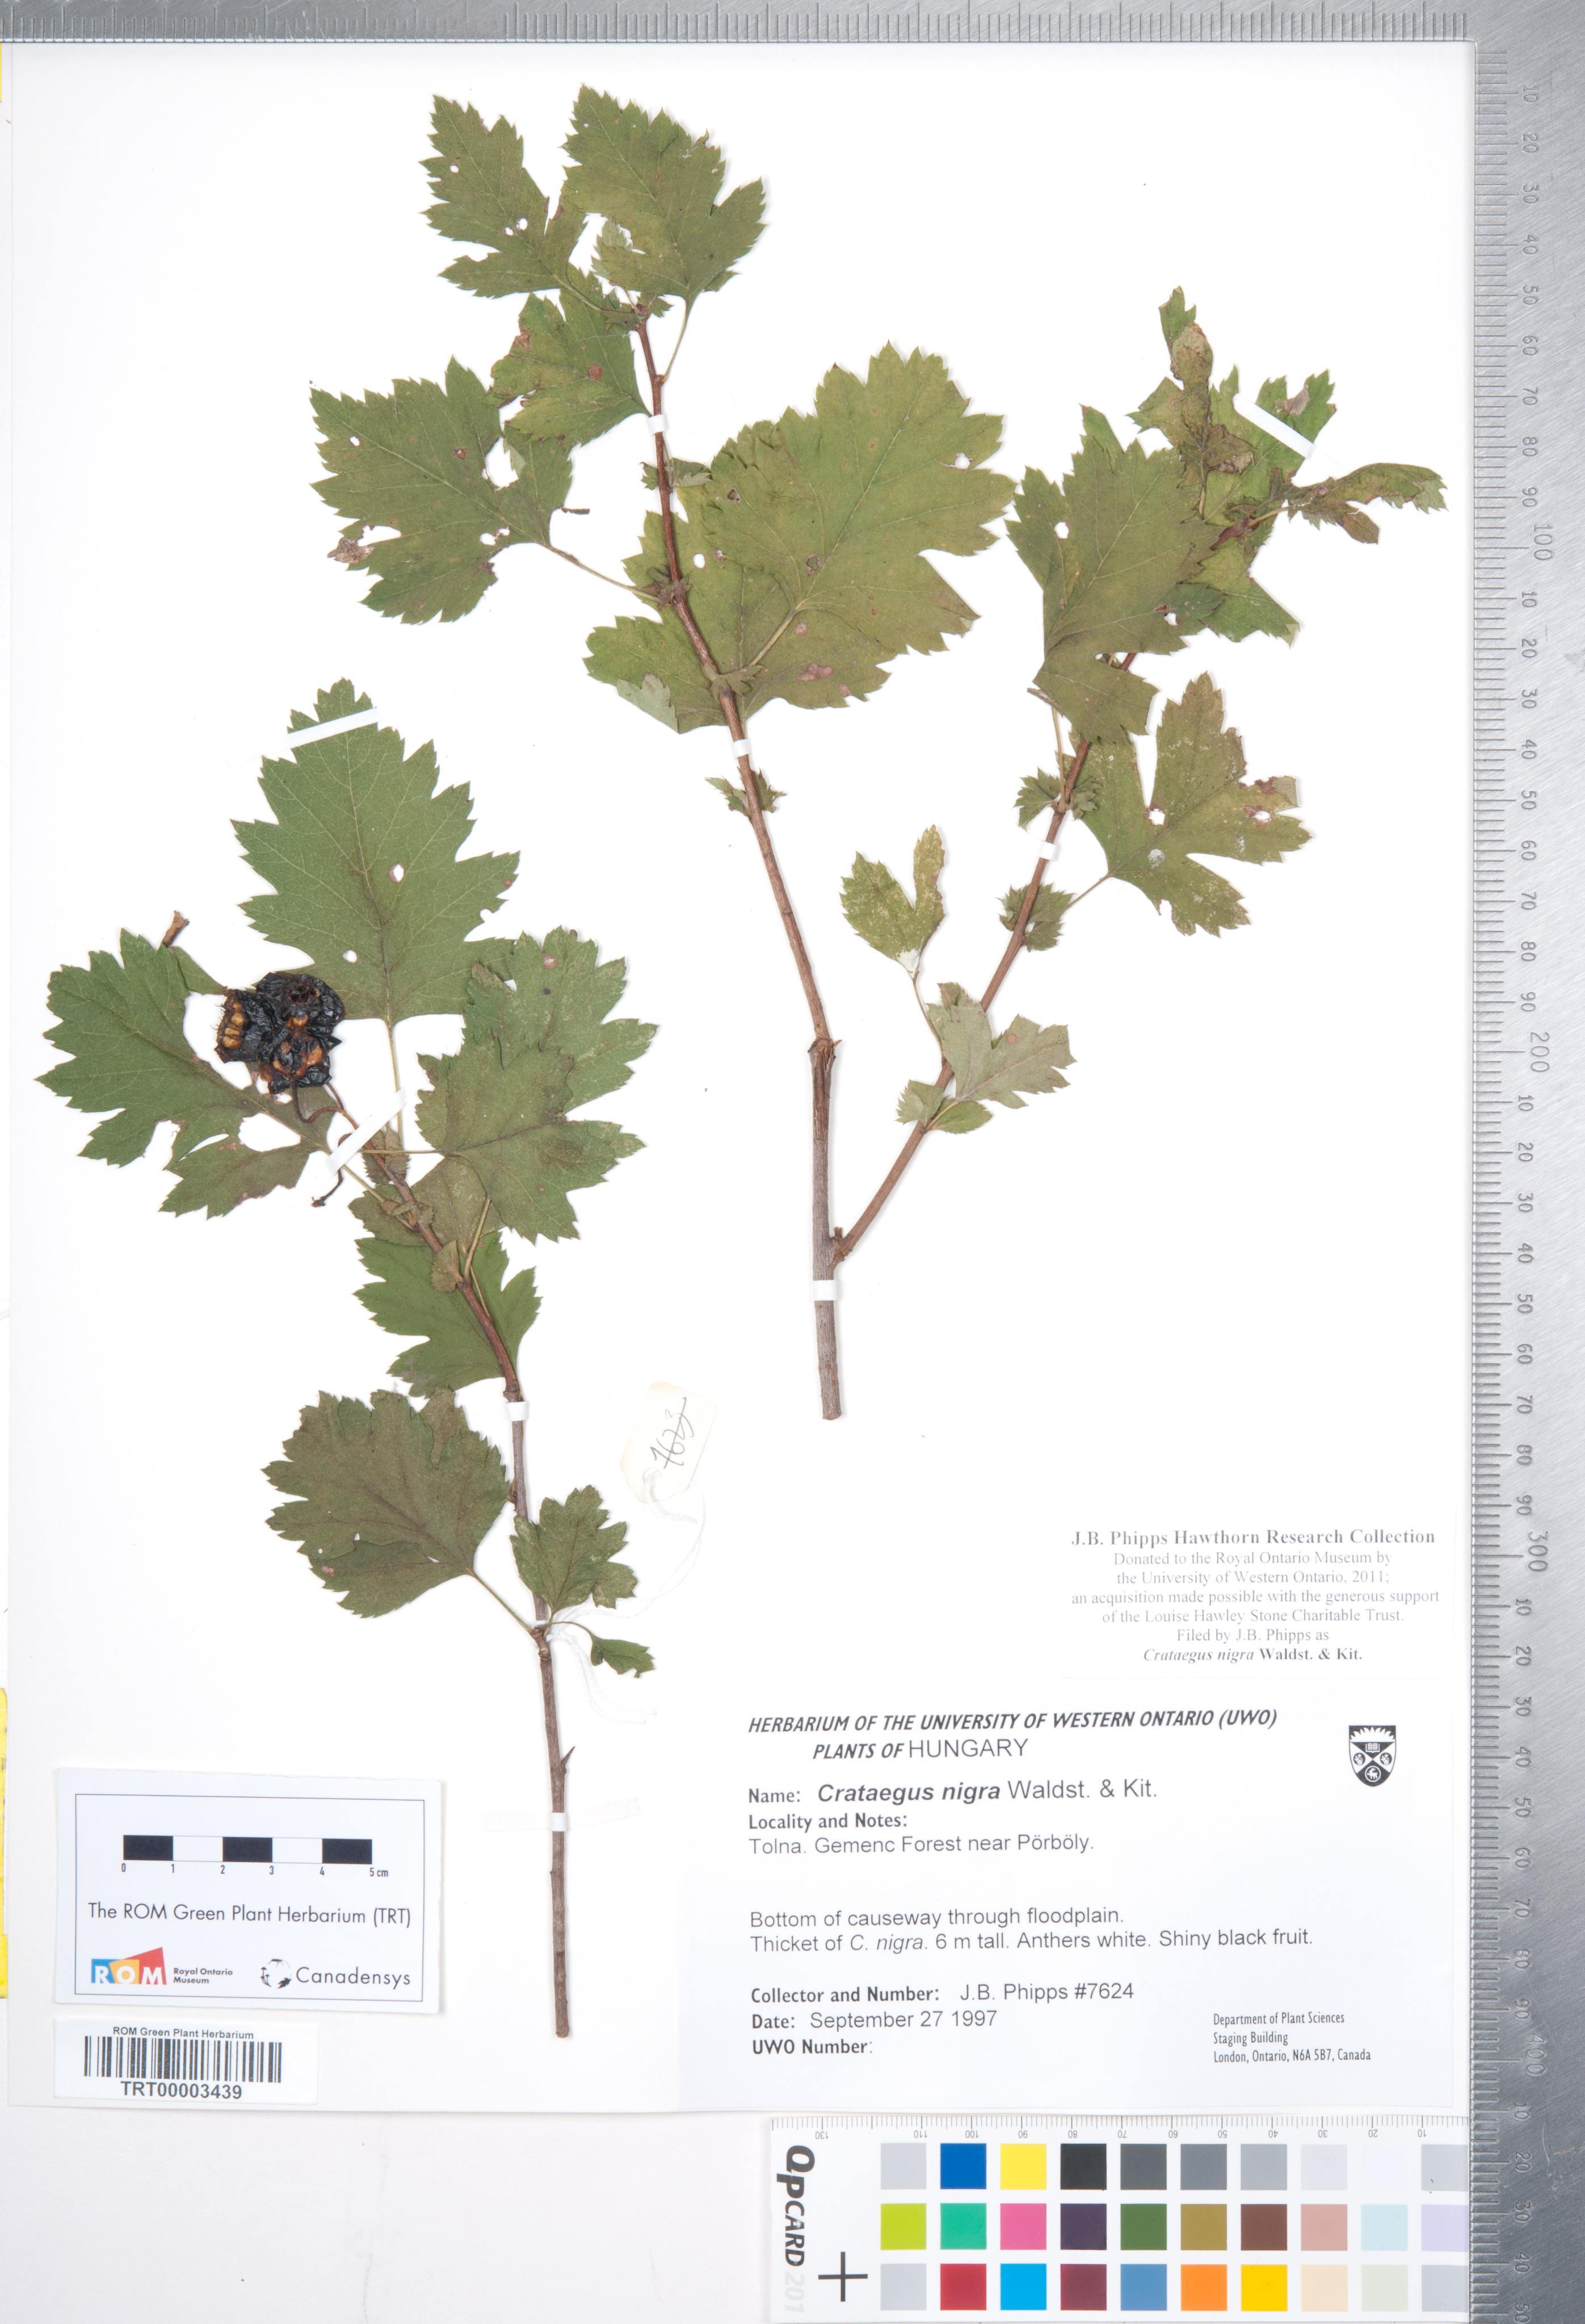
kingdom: Plantae
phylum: Tracheophyta
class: Magnoliopsida
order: Rosales
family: Rosaceae
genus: Crataegus
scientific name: Crataegus nigra
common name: Hungarian thorn
